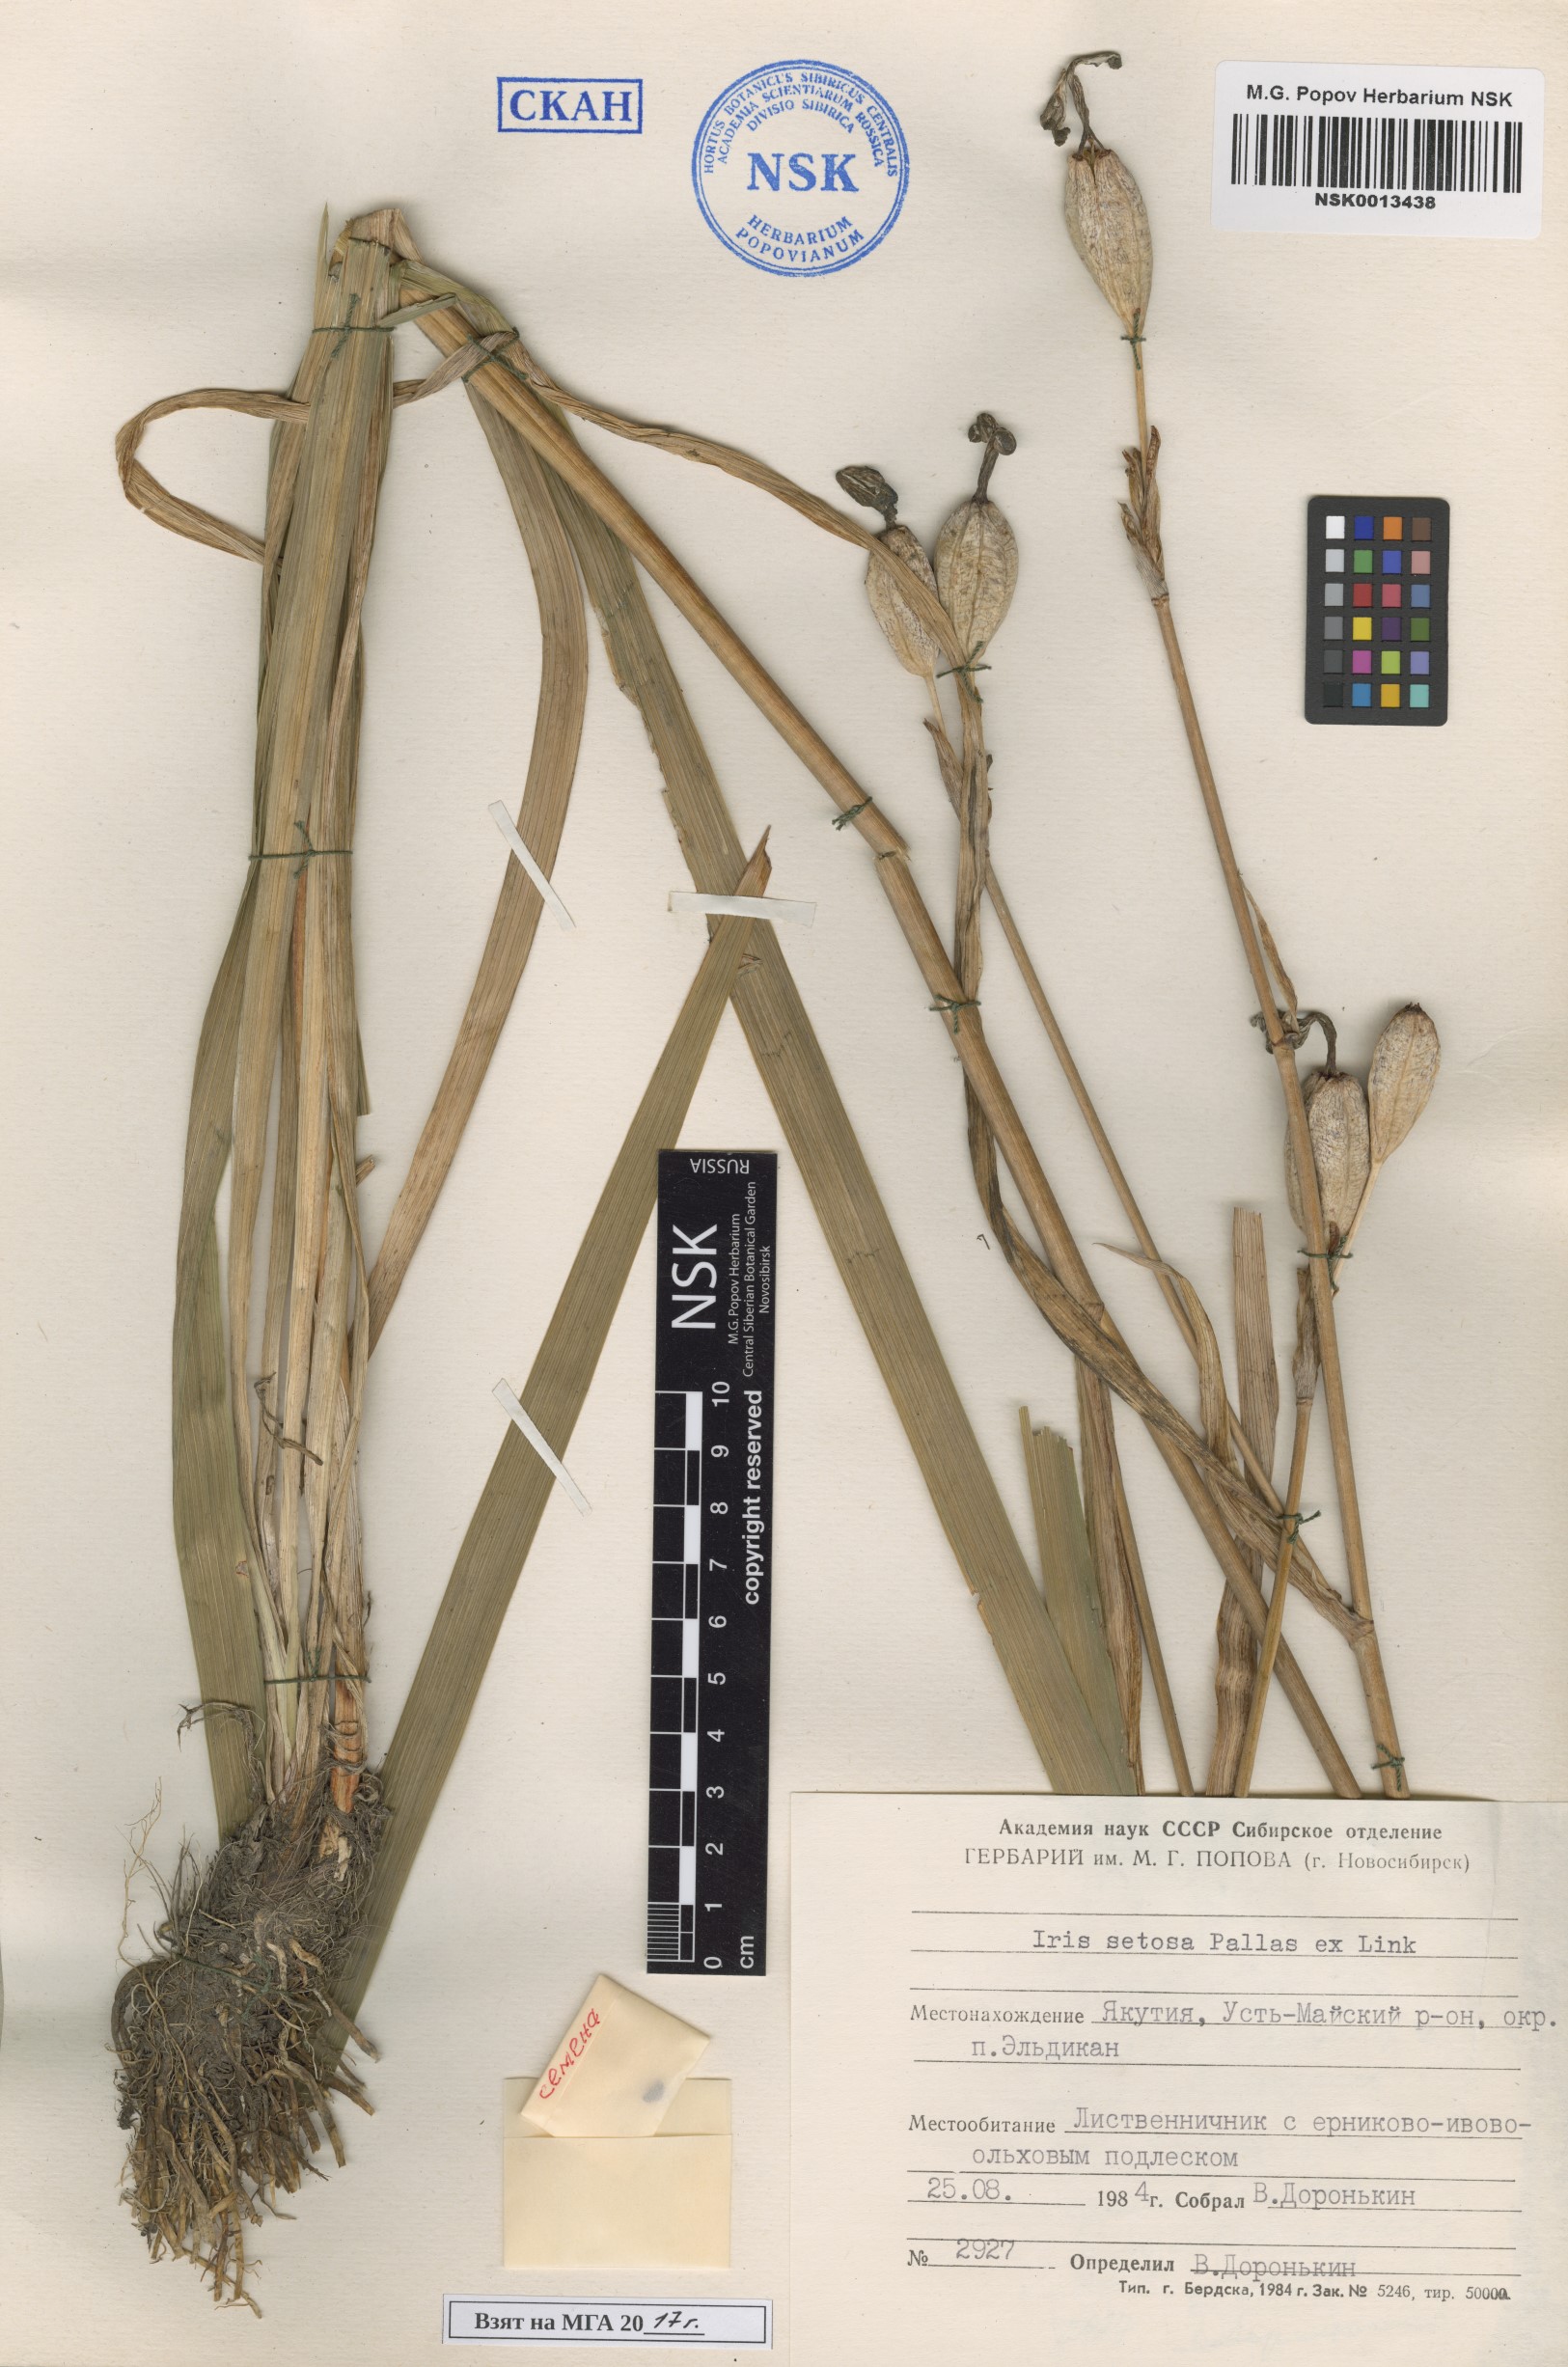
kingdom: Plantae
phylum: Tracheophyta
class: Liliopsida
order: Asparagales
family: Iridaceae
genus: Iris
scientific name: Iris setosa
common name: Arctic blue flag
